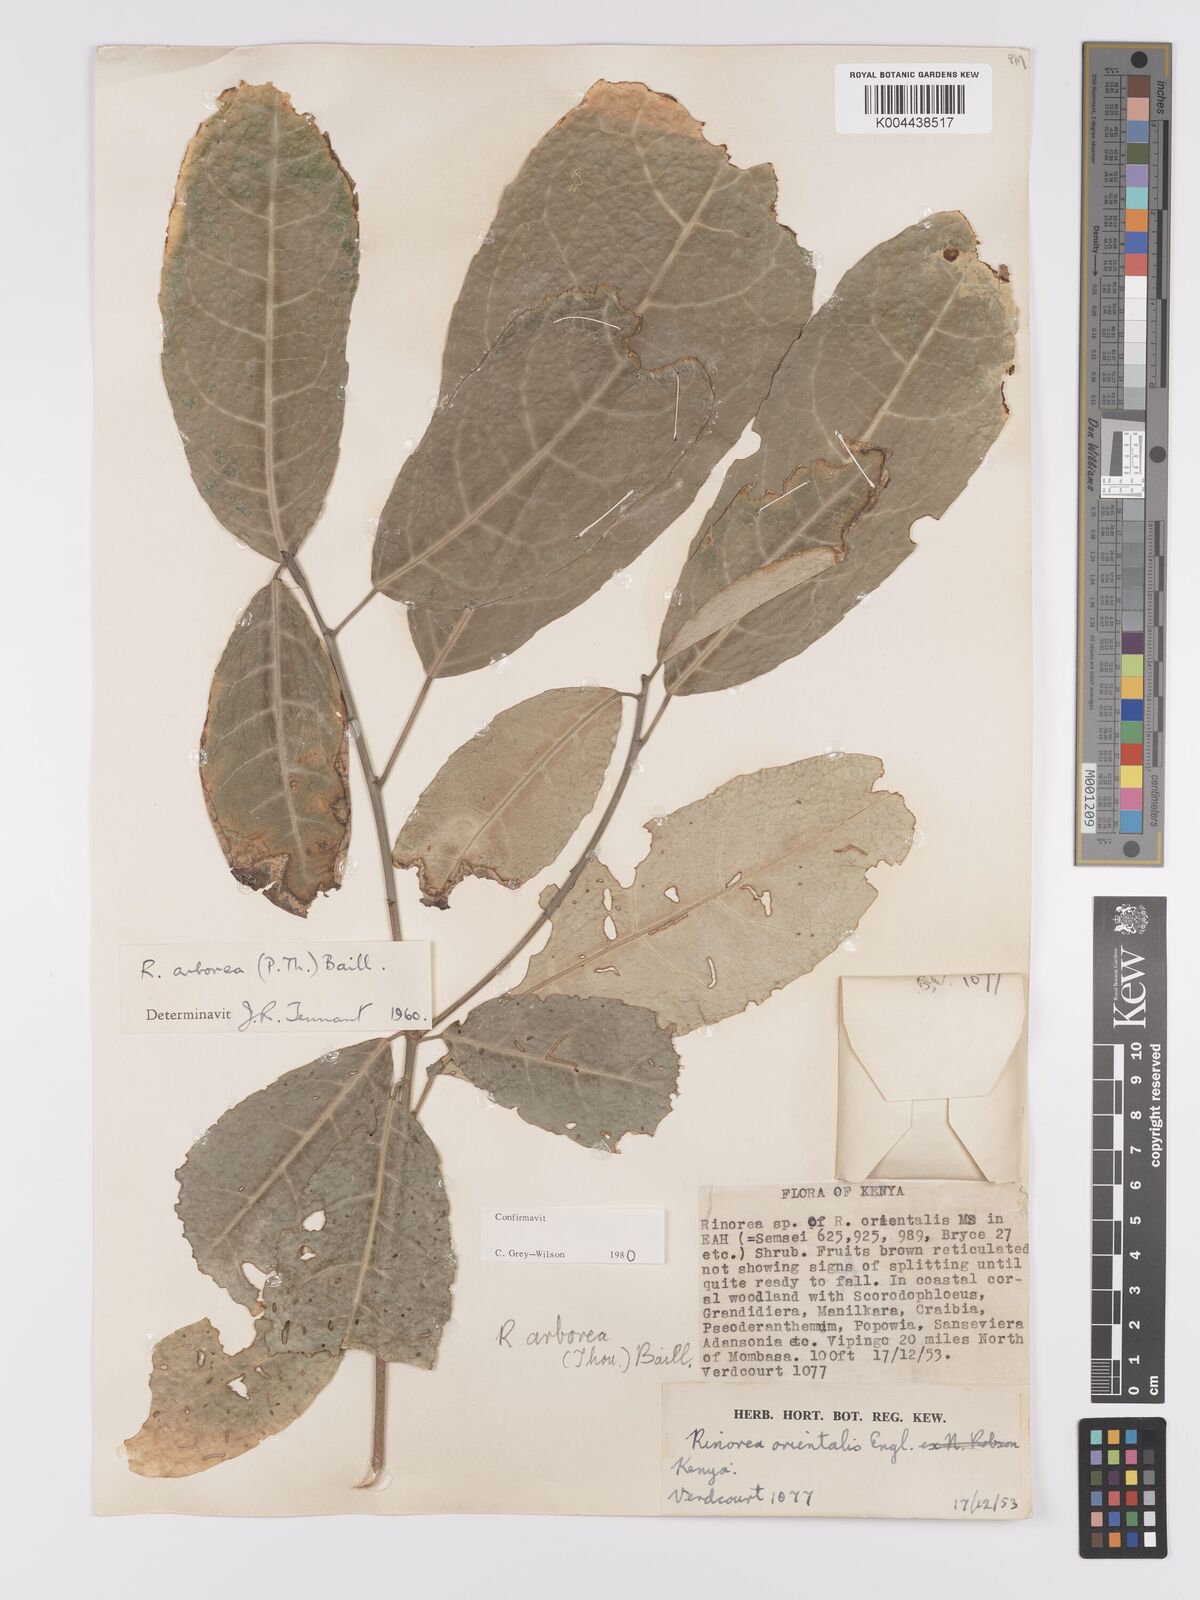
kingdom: Plantae
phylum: Tracheophyta
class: Magnoliopsida
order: Malpighiales
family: Violaceae
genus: Rinorea
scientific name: Rinorea arborea
